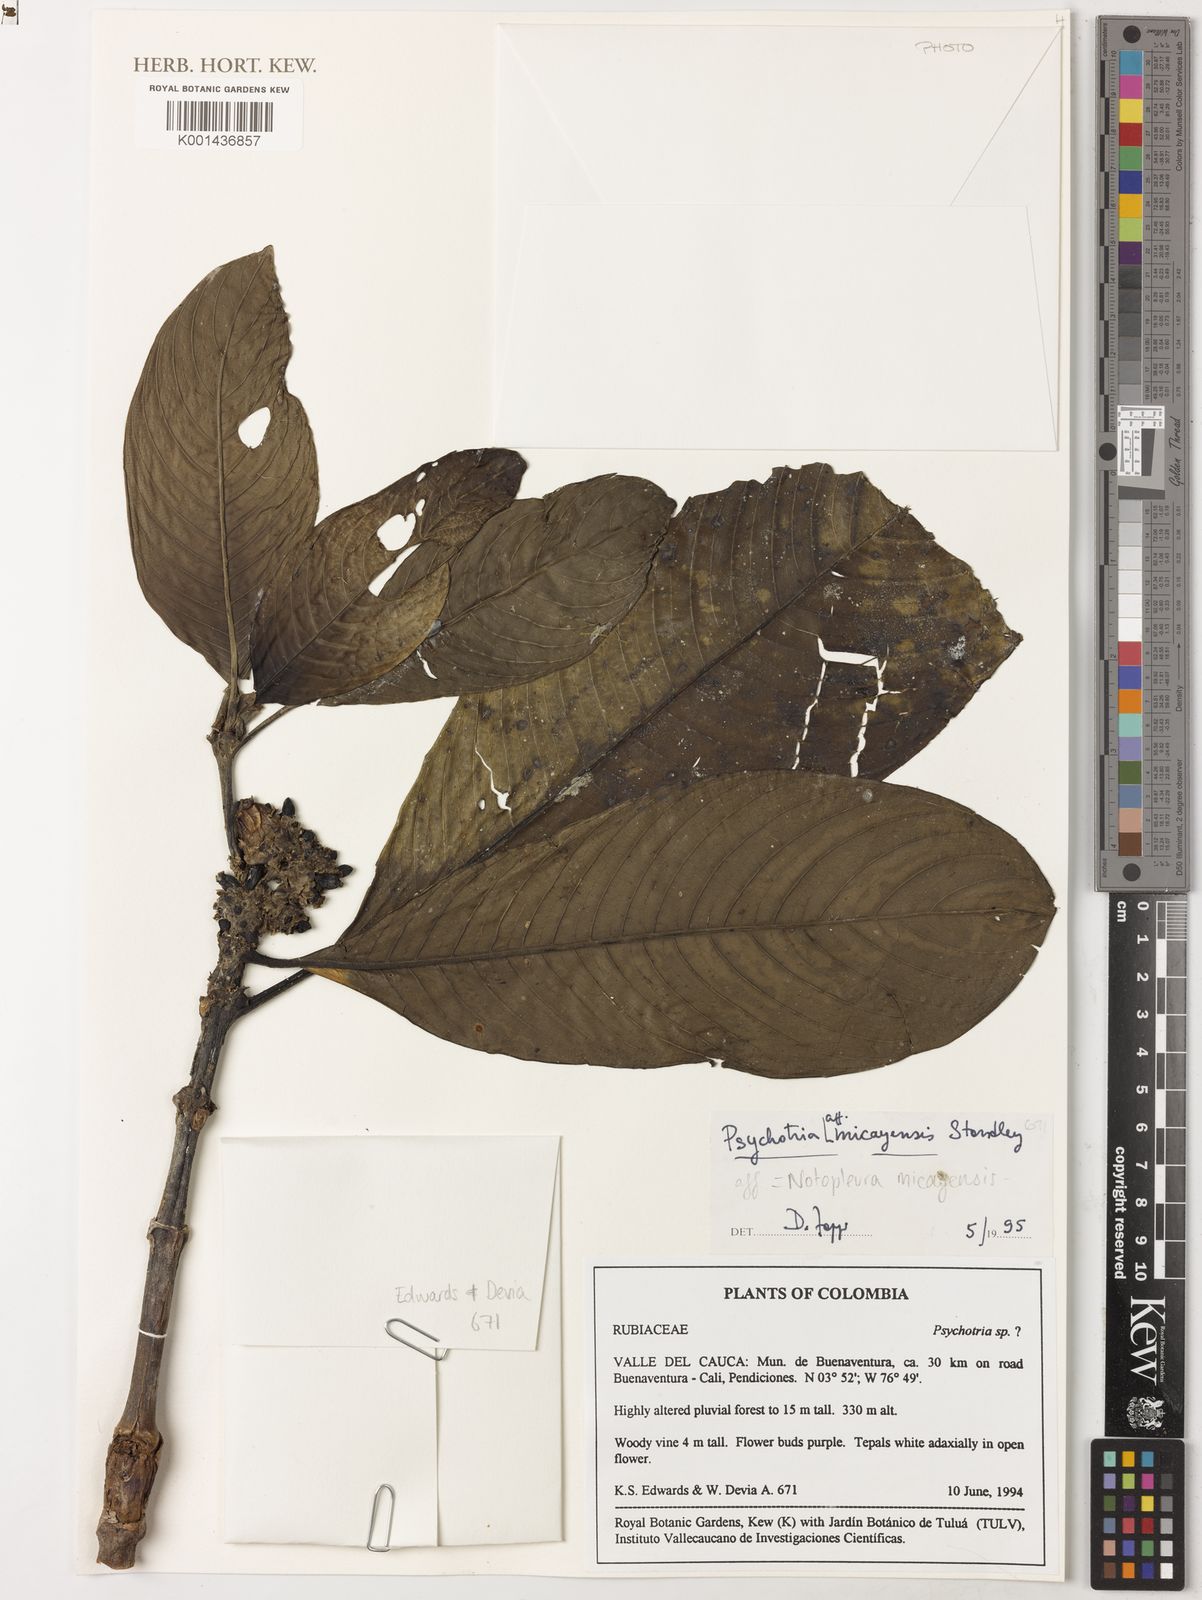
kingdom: Plantae
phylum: Tracheophyta
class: Magnoliopsida
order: Gentianales
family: Rubiaceae
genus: Notopleura
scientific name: Notopleura micayensis
